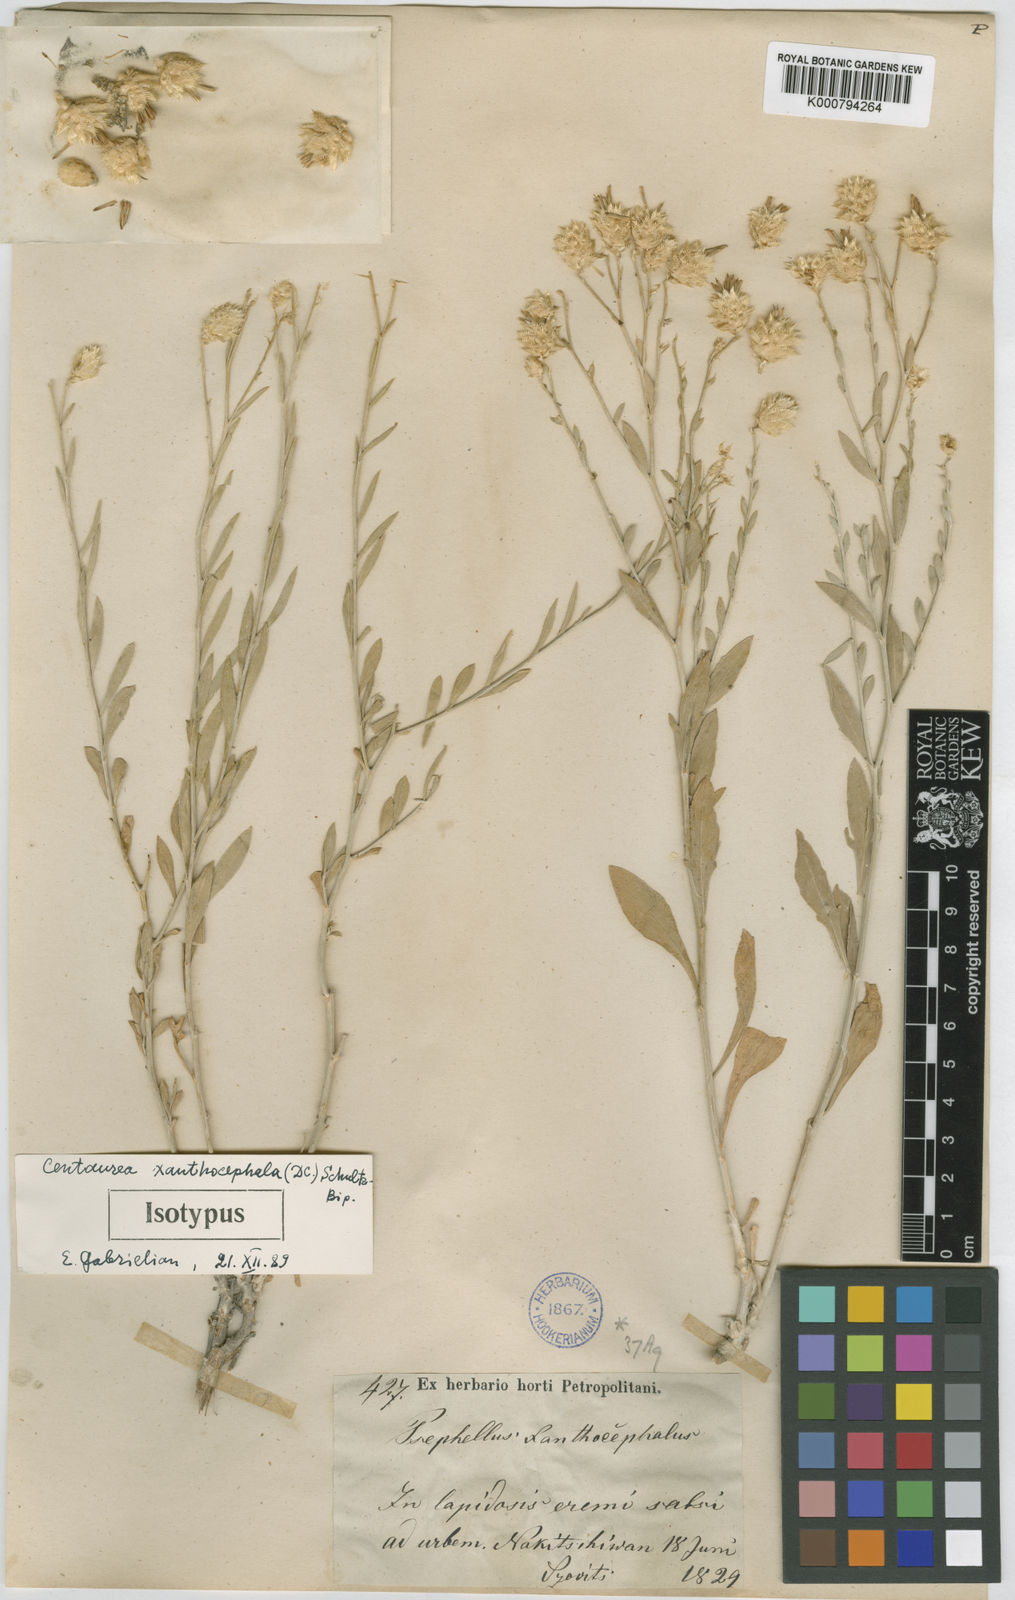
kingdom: Plantae
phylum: Tracheophyta
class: Magnoliopsida
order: Asterales
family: Asteraceae
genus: Psephellus
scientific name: Psephellus xanthocephalus
